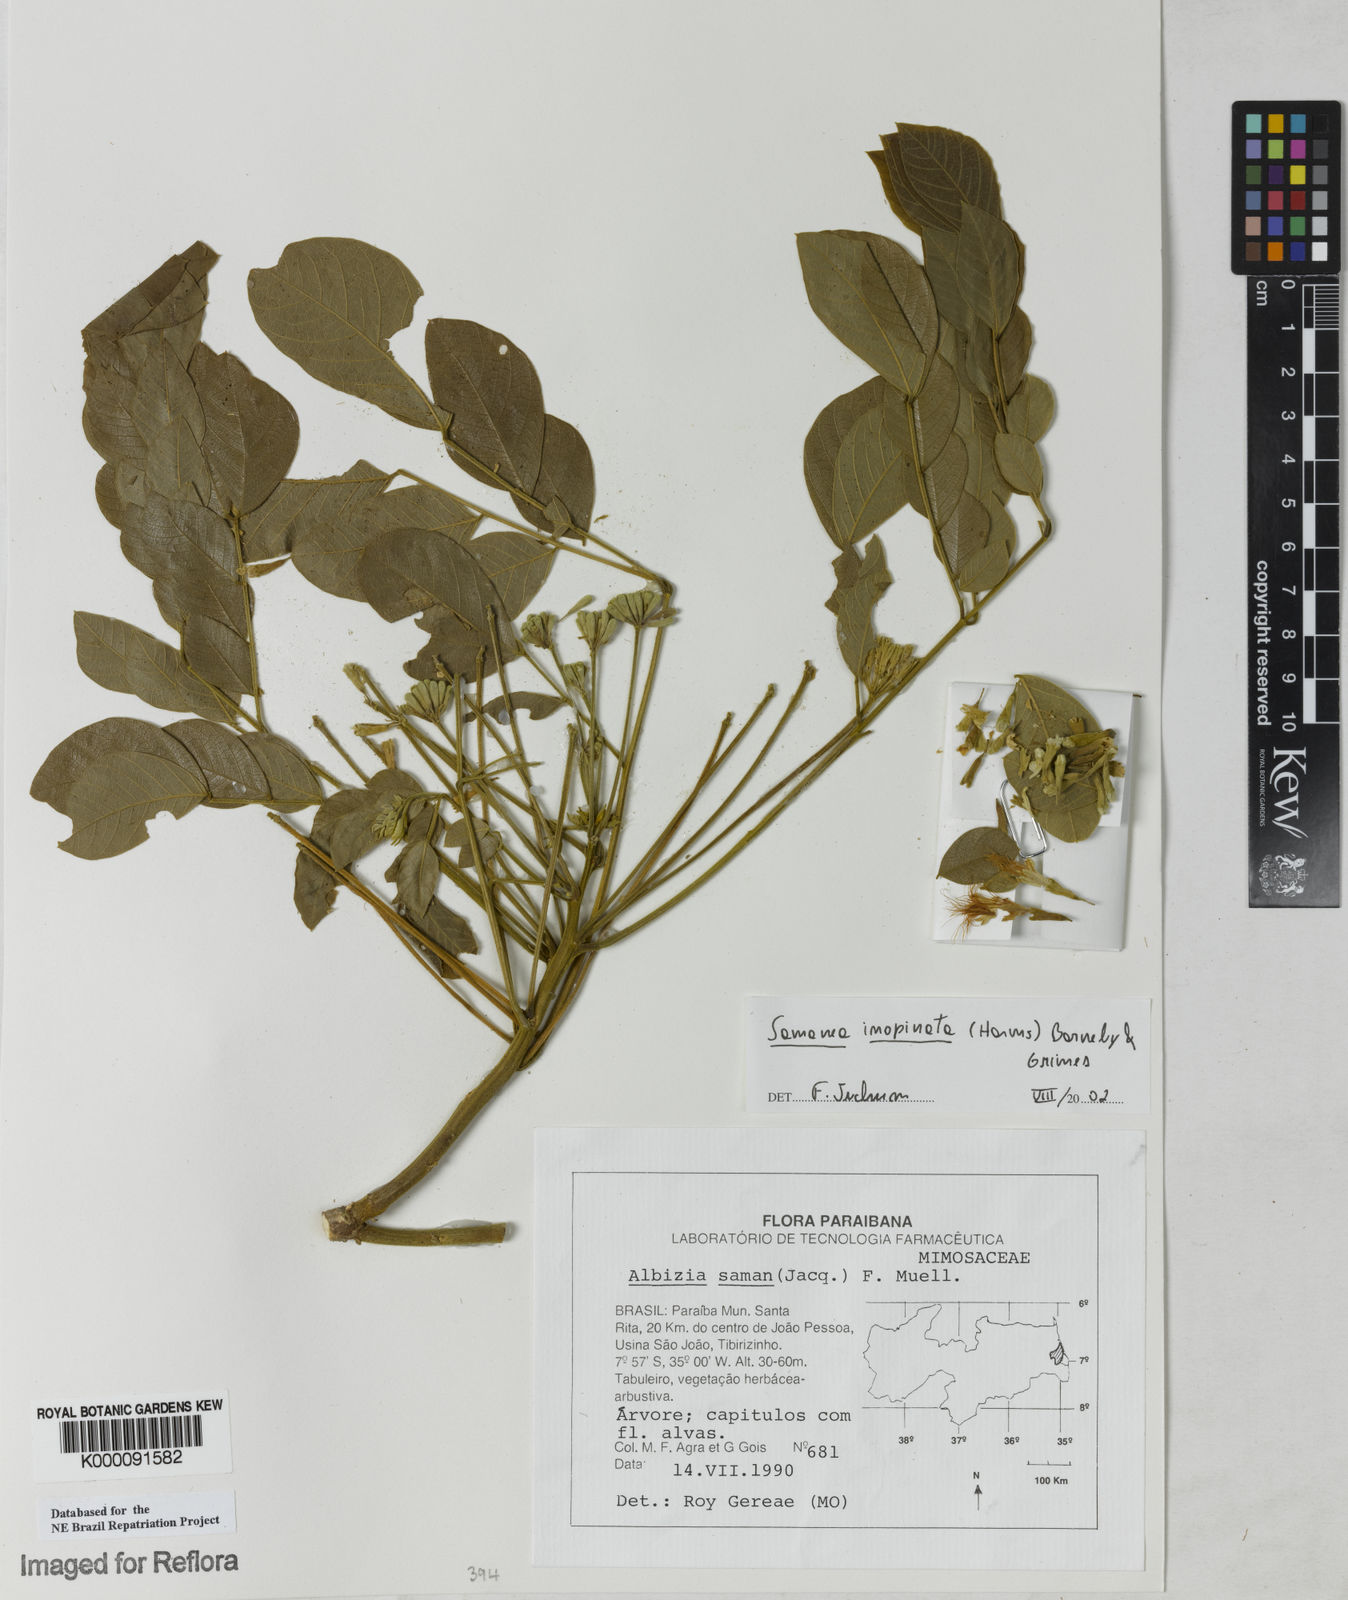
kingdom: Plantae
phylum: Tracheophyta
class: Magnoliopsida
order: Fabales
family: Fabaceae
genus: Samanea
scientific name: Samanea inopinata
